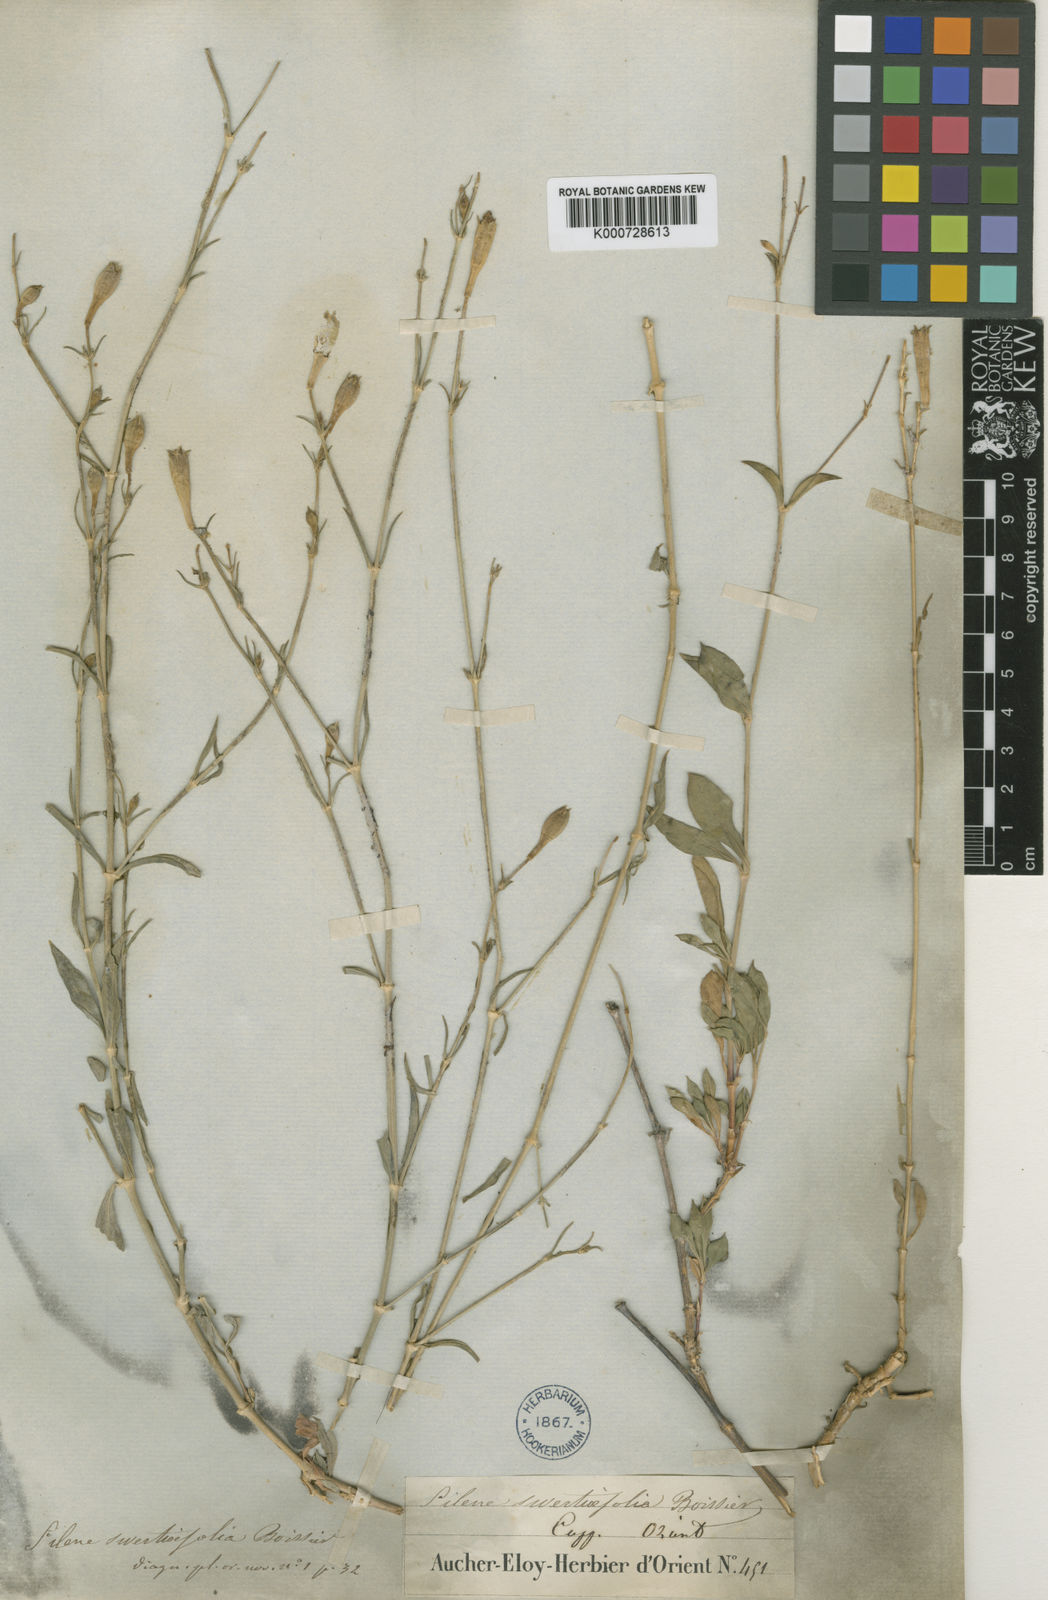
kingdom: Plantae
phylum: Tracheophyta
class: Magnoliopsida
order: Caryophyllales
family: Caryophyllaceae
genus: Silene
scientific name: Silene swertiifolia
